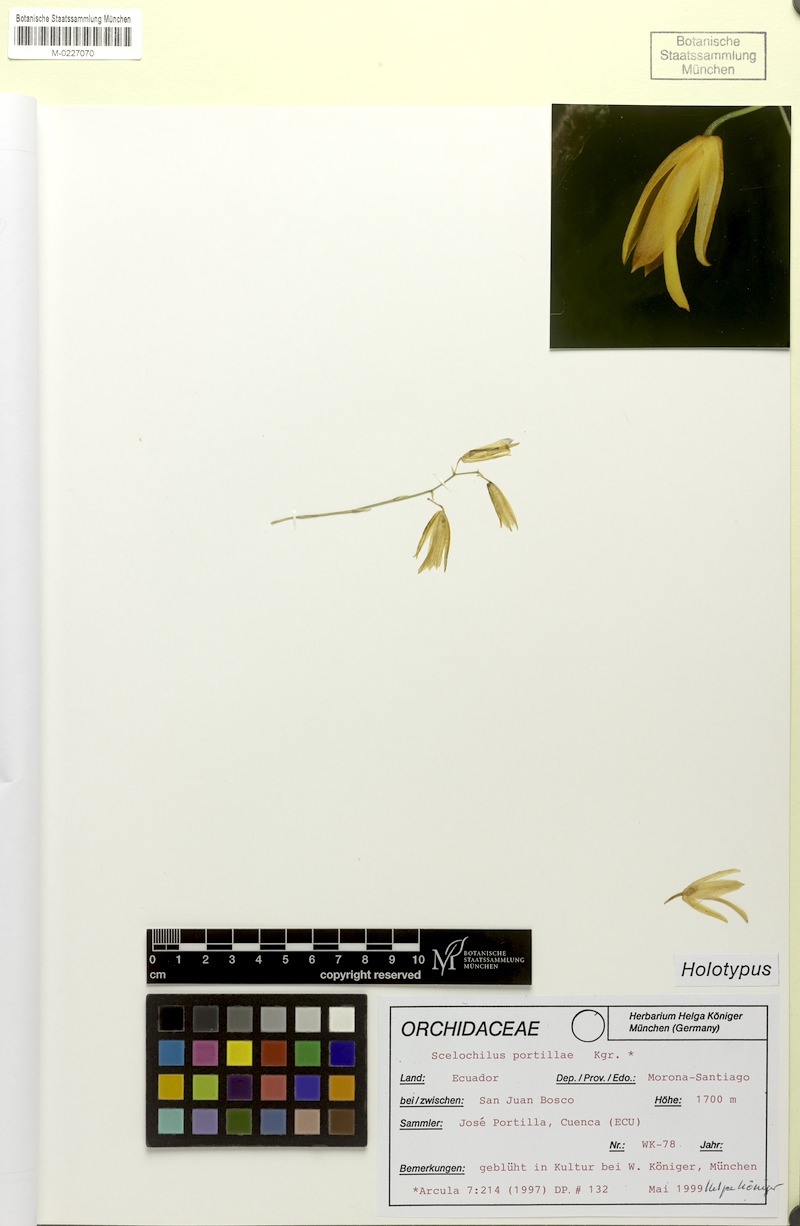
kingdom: Plantae
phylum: Tracheophyta
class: Liliopsida
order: Asparagales
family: Orchidaceae
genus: Comparettia
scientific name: Comparettia portillae
